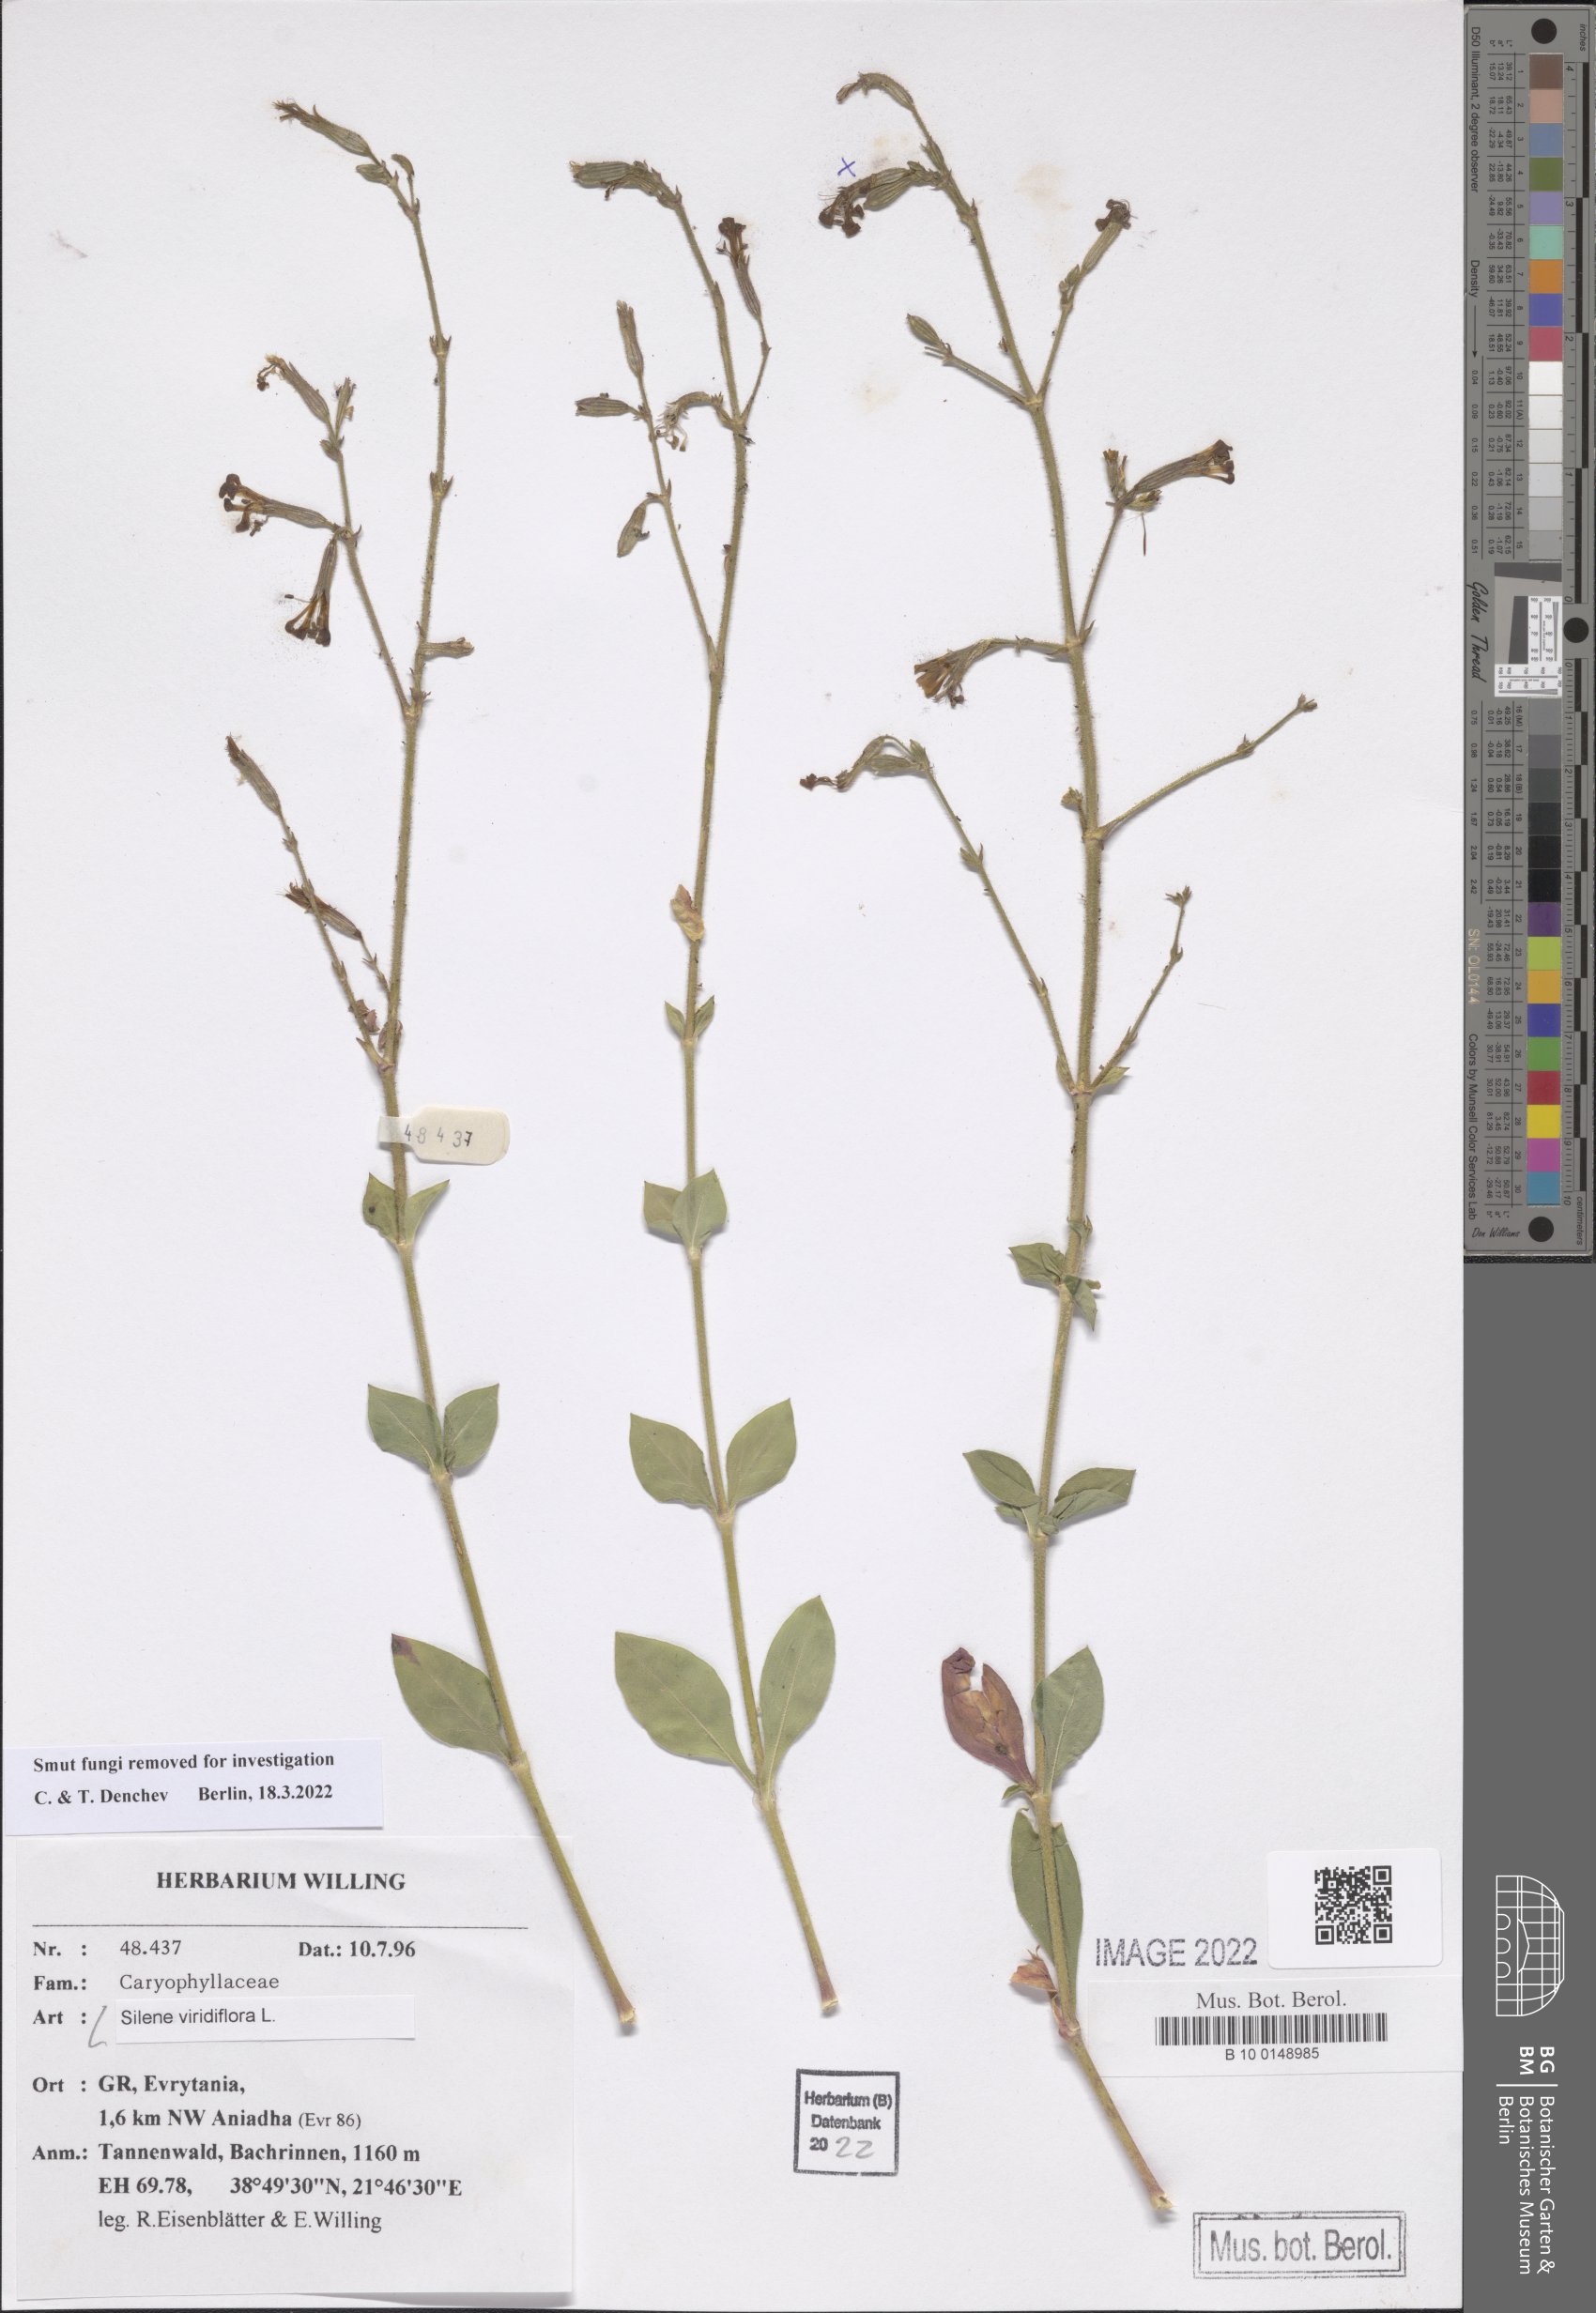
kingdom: Plantae
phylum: Tracheophyta
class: Magnoliopsida
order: Caryophyllales
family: Caryophyllaceae
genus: Silene
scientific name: Silene viridiflora
